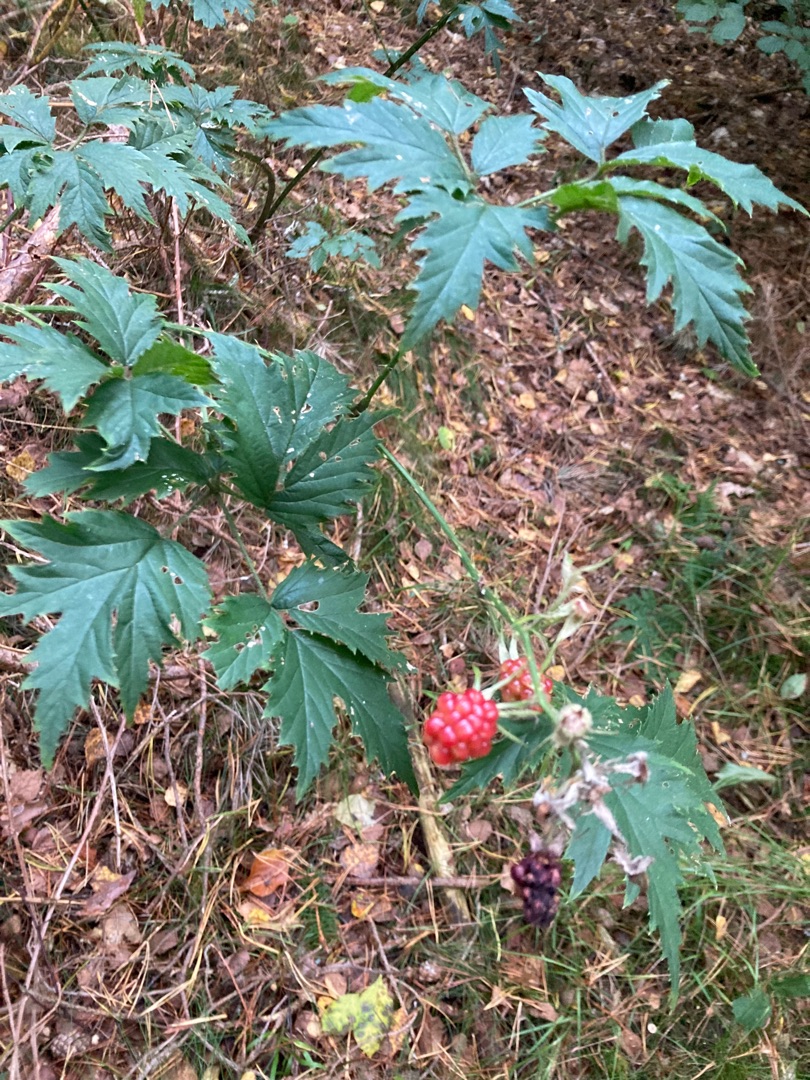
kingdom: Plantae
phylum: Tracheophyta
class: Magnoliopsida
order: Rosales
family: Rosaceae
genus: Rubus
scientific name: Rubus laciniatus
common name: Fliget brombær
